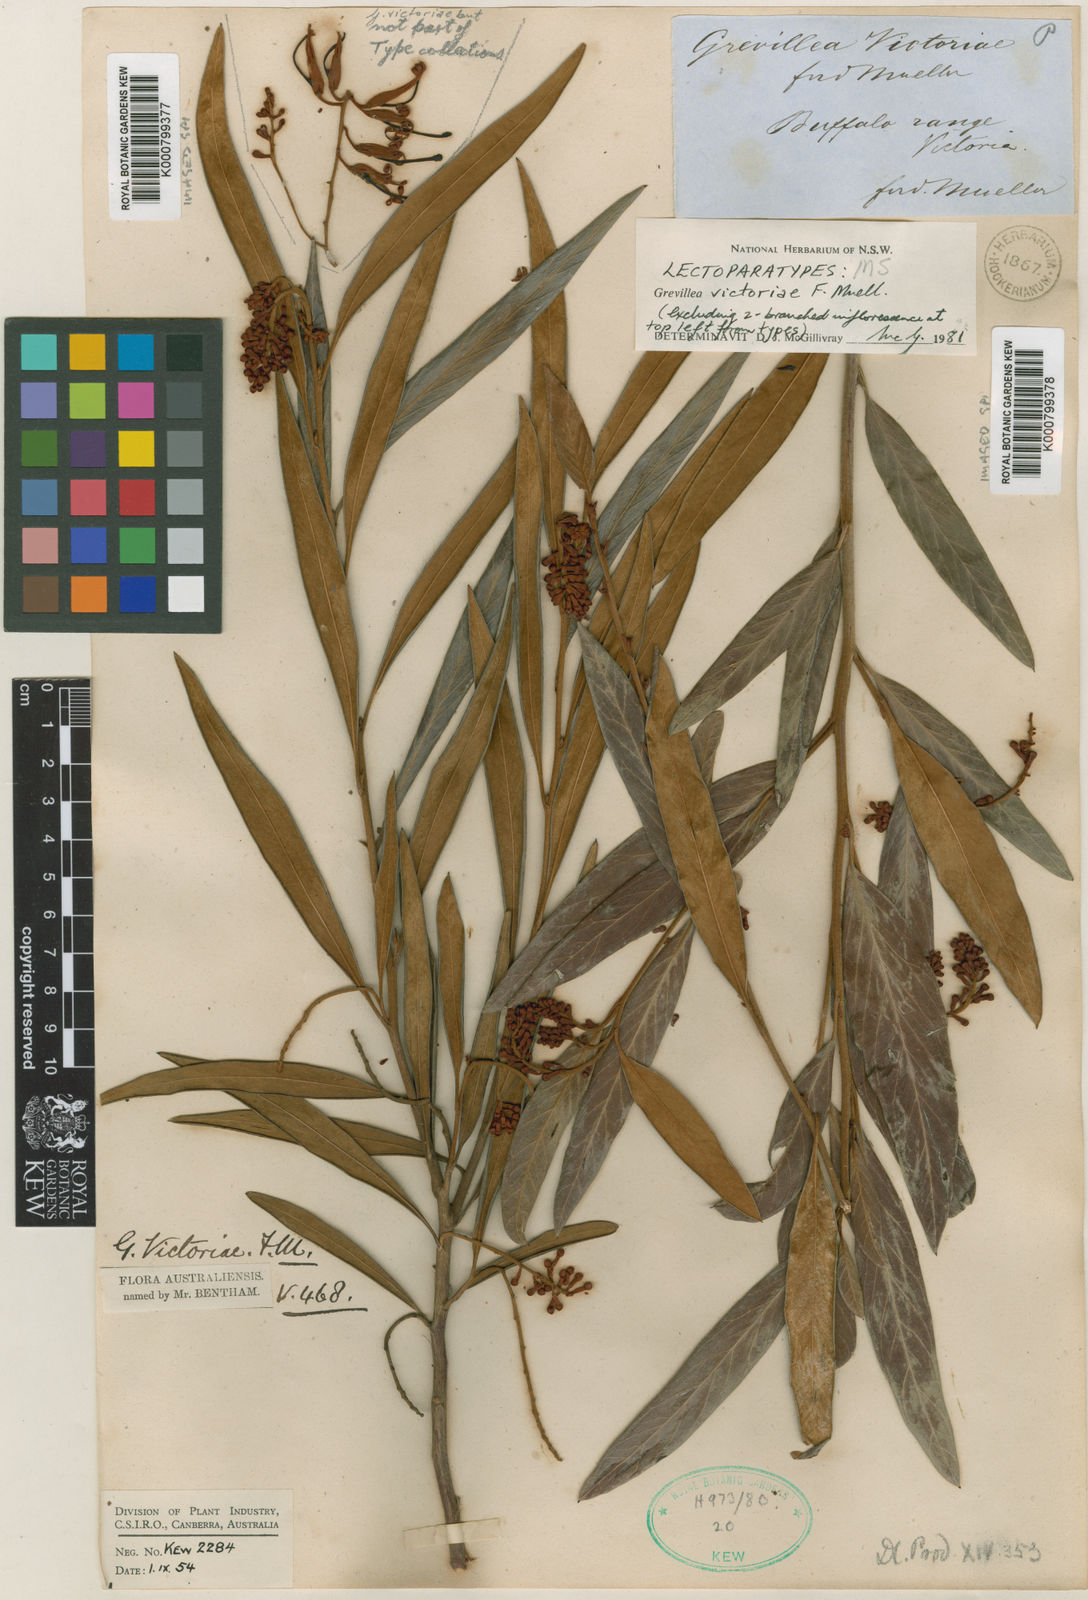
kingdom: Plantae
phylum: Tracheophyta
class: Magnoliopsida
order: Proteales
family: Proteaceae
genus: Grevillea
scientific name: Grevillea victoriae
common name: Royal grevillea
